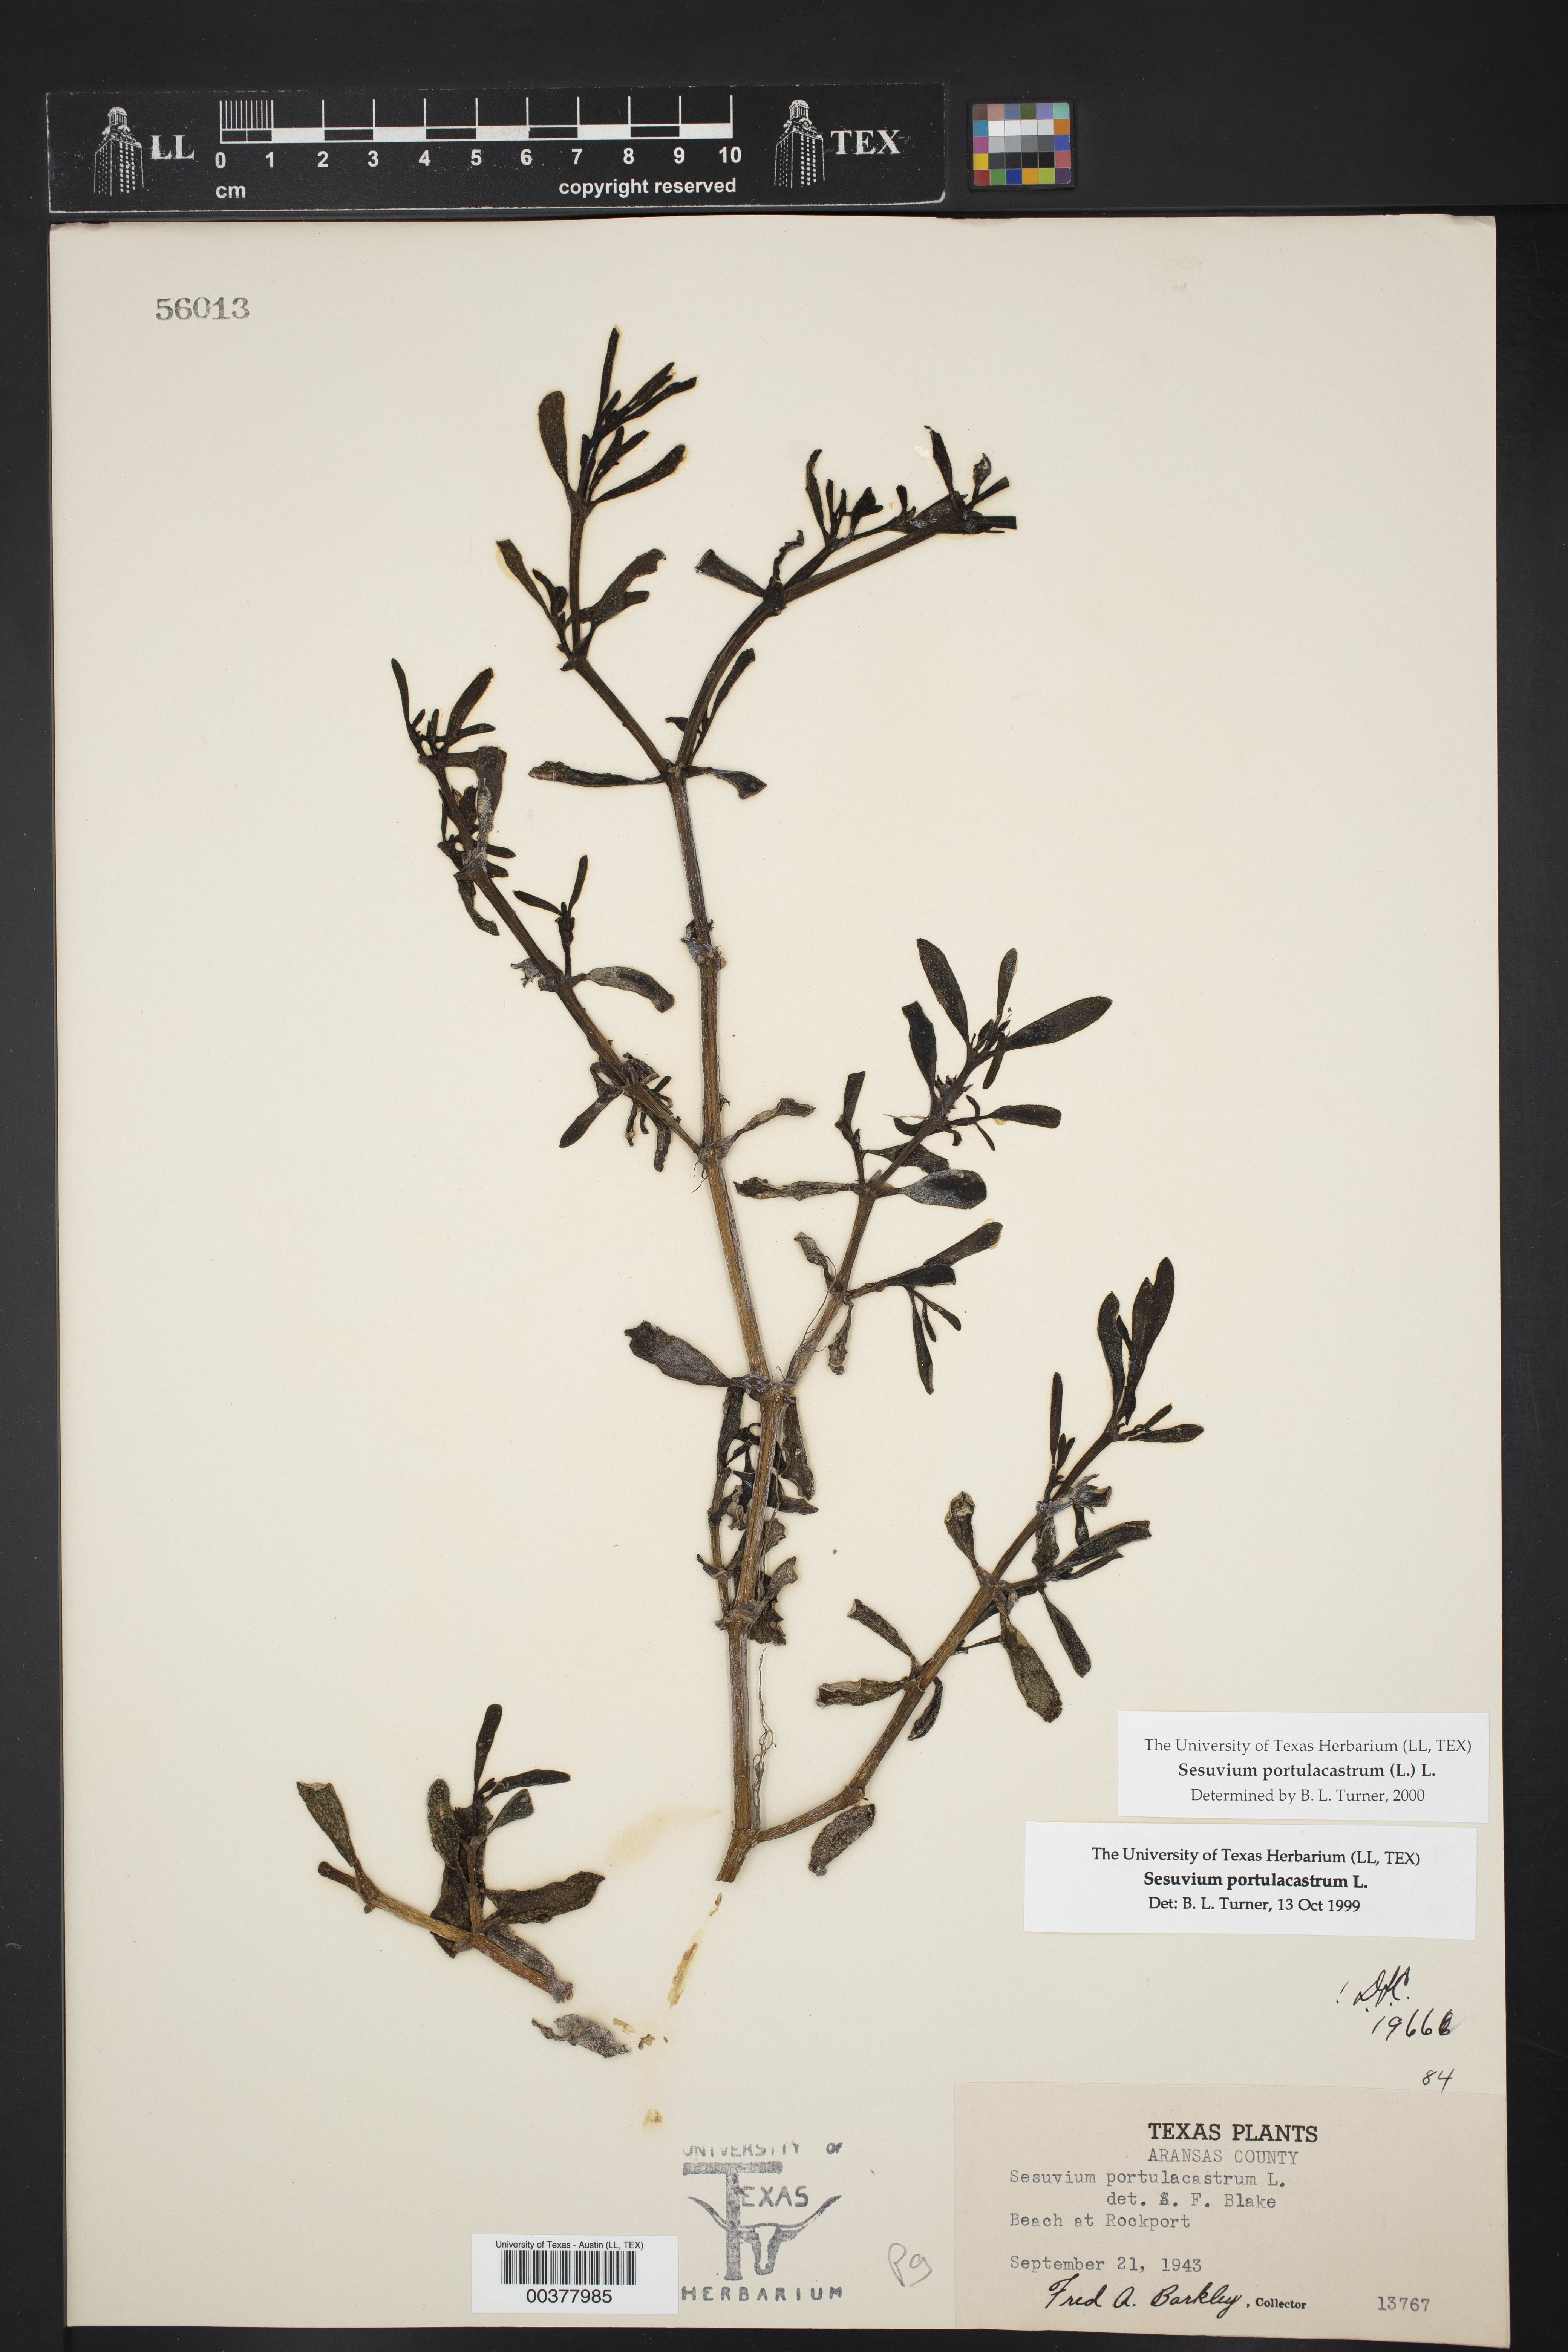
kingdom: Plantae
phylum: Tracheophyta
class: Magnoliopsida
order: Caryophyllales
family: Aizoaceae
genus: Sesuvium
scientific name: Sesuvium portulacastrum
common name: Sea-purslane
